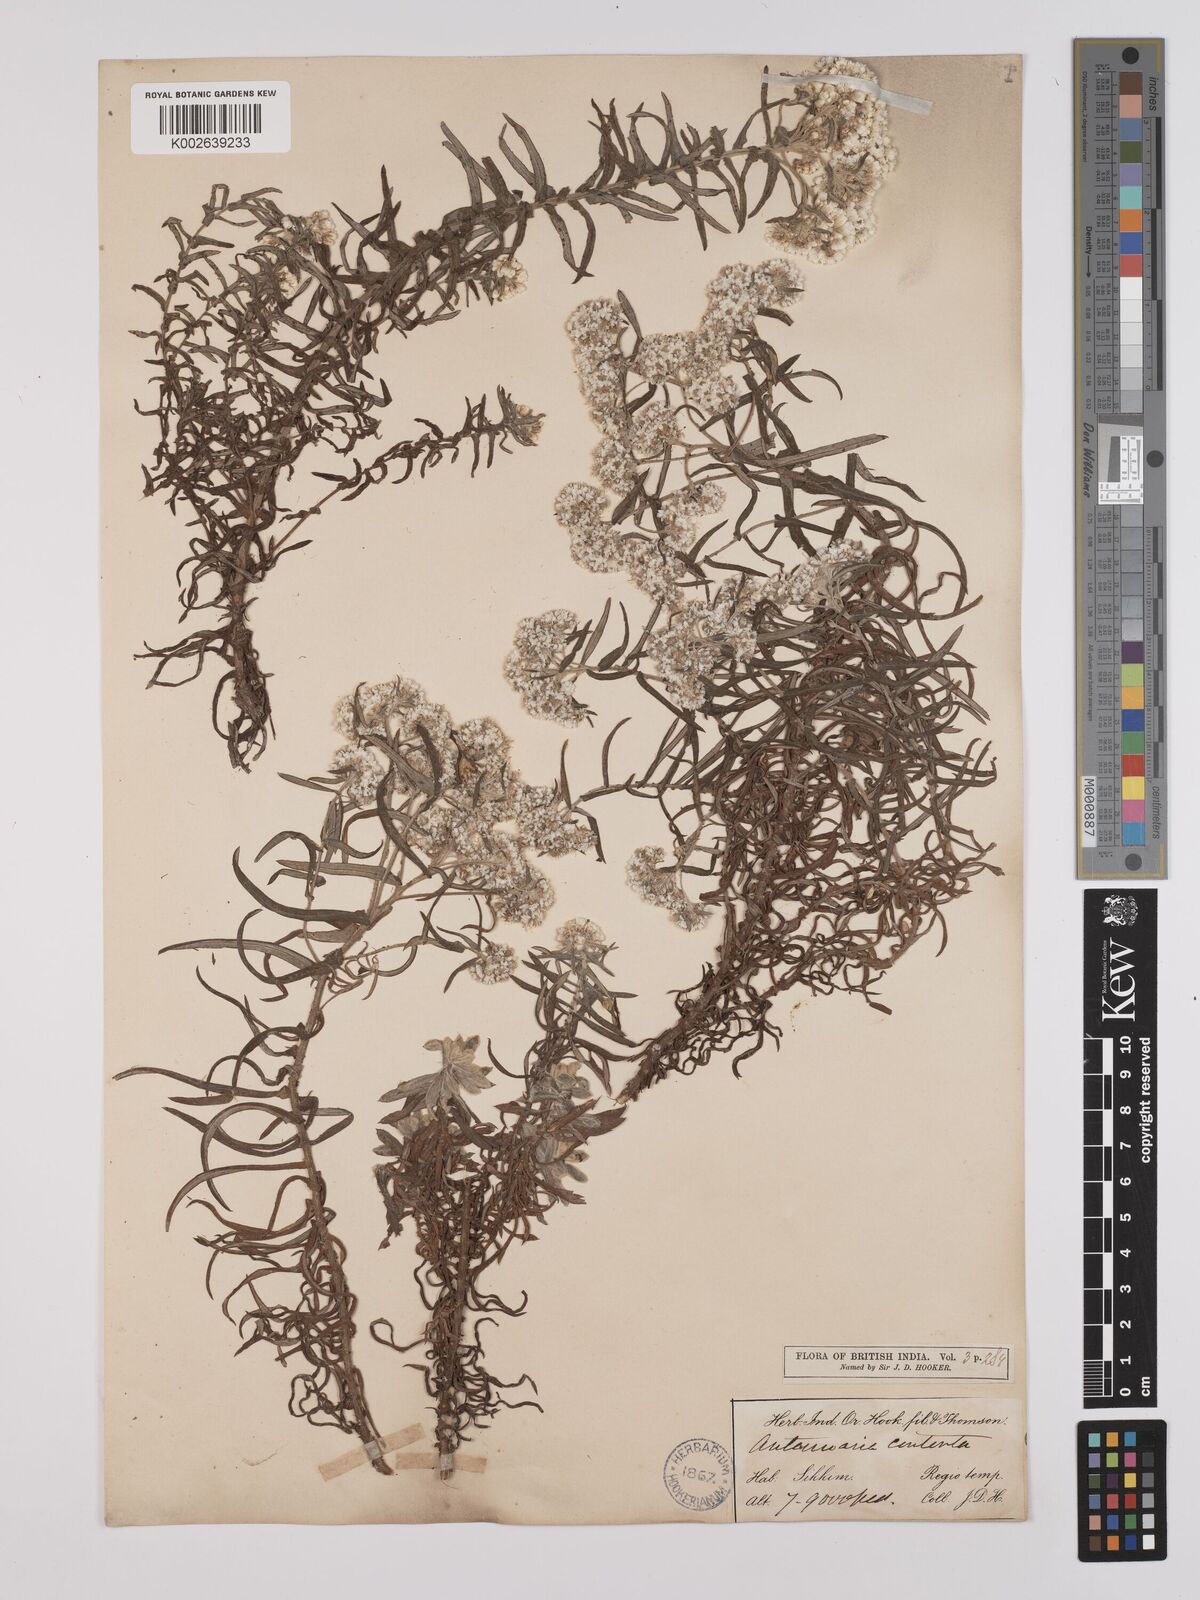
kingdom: Plantae
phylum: Tracheophyta
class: Magnoliopsida
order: Asterales
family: Asteraceae
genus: Anaphalis
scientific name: Anaphalis contorta
